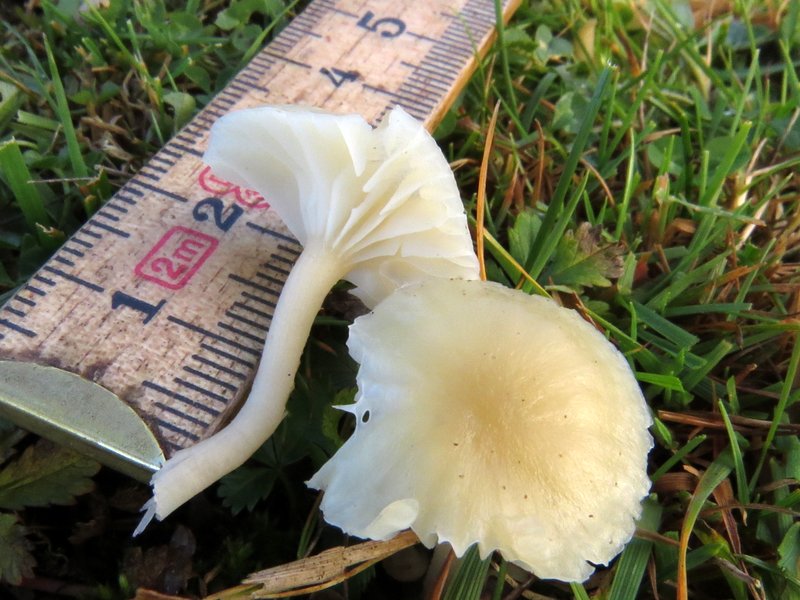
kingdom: Fungi
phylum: Basidiomycota
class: Agaricomycetes
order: Agaricales
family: Hygrophoraceae
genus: Cuphophyllus
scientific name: Cuphophyllus virgineus
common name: snehvid vokshat
